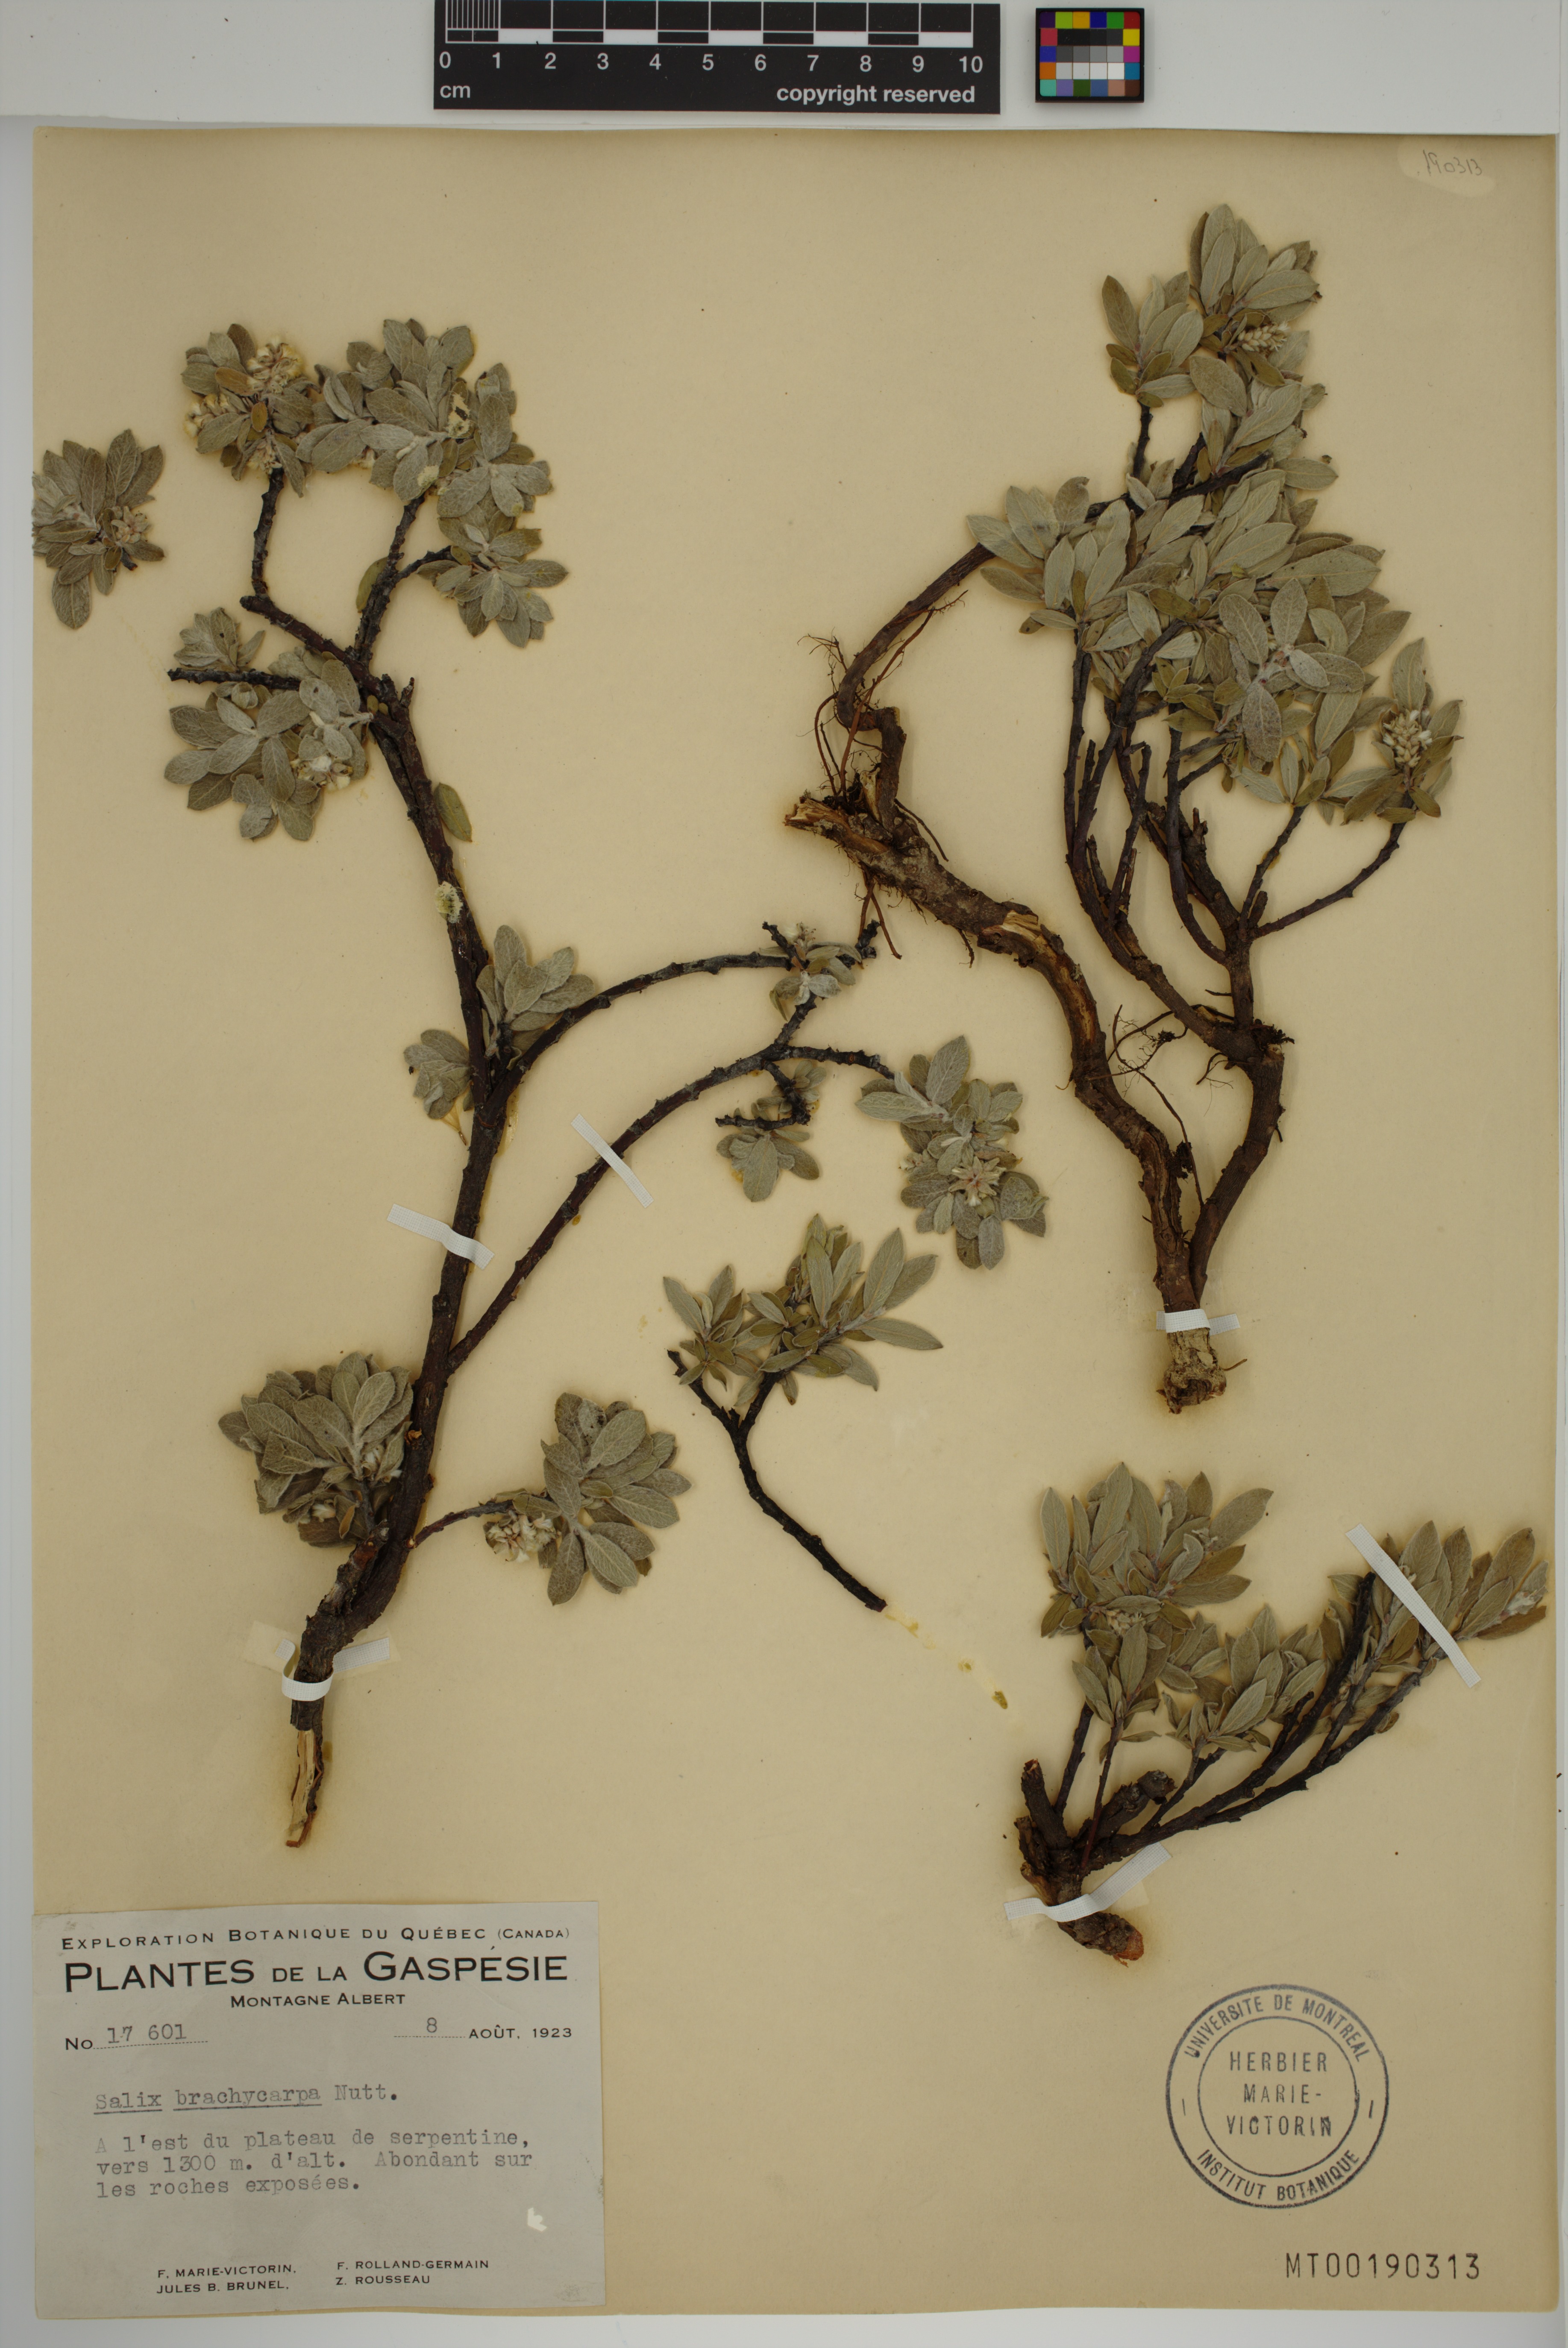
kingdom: Plantae
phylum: Tracheophyta
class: Magnoliopsida
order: Malpighiales
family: Salicaceae
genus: Salix
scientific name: Salix brachycarpa
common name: Barren-ground willow
